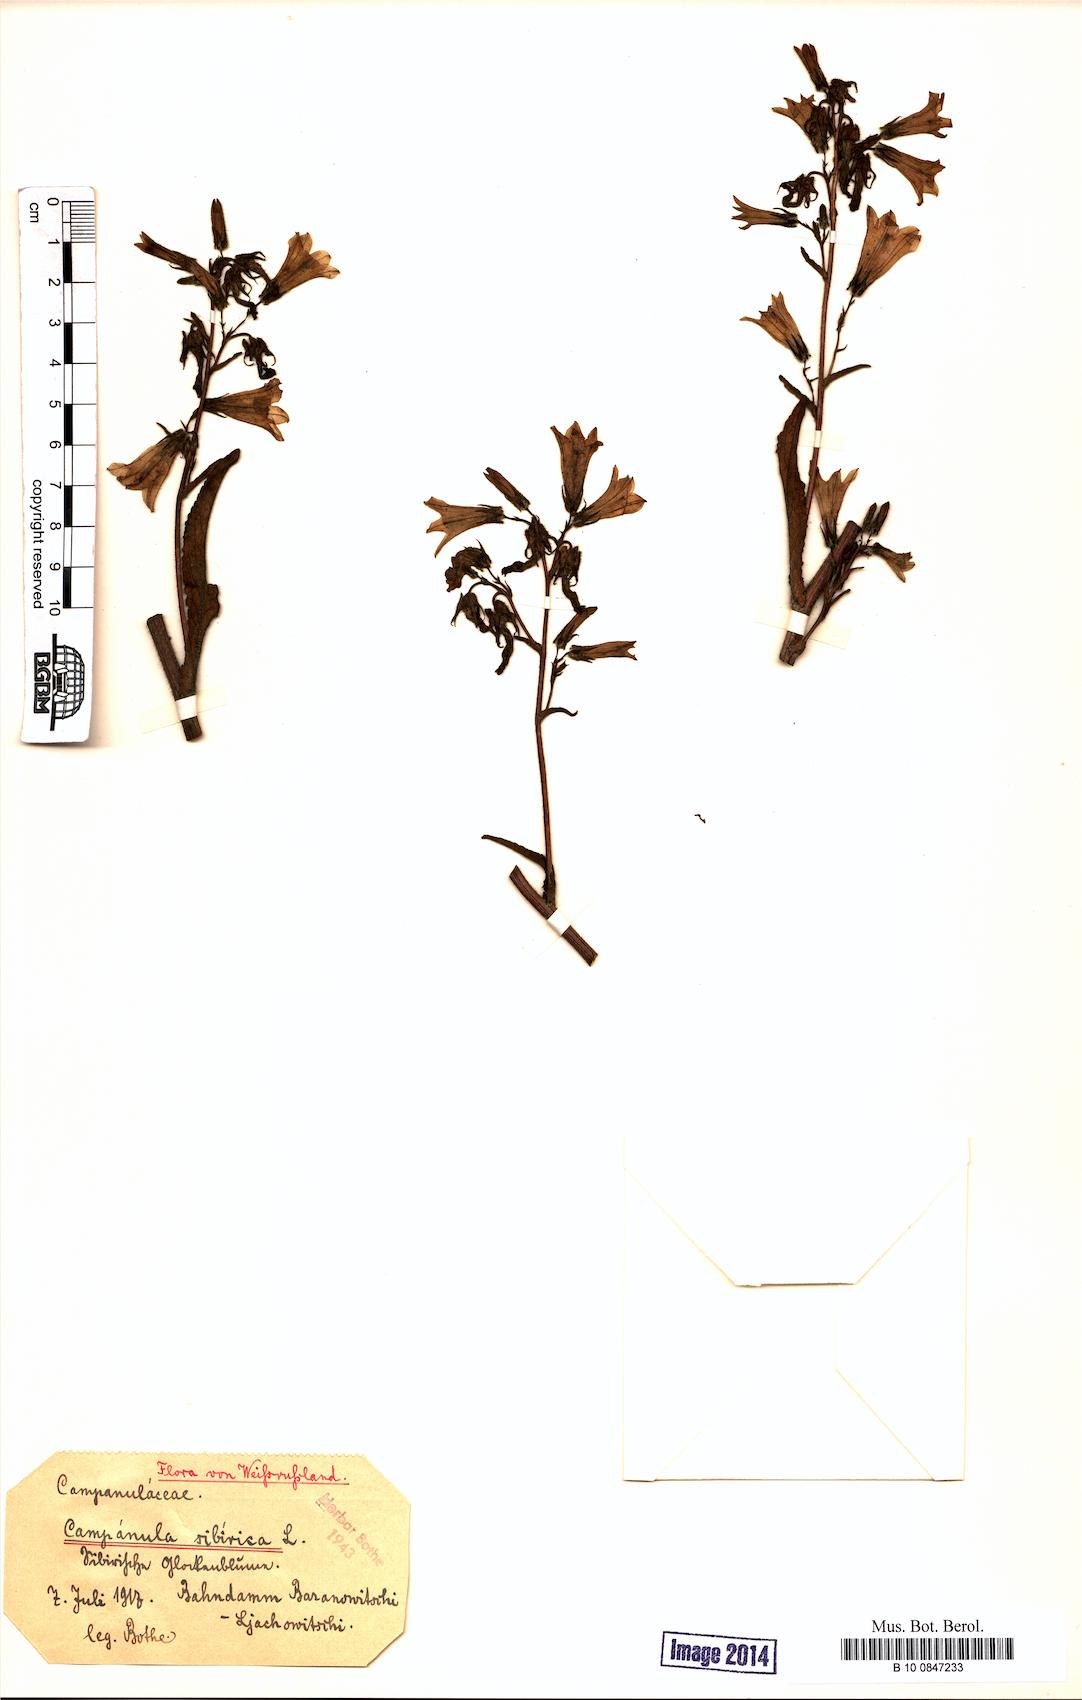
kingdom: Plantae
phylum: Tracheophyta
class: Magnoliopsida
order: Asterales
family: Campanulaceae
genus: Campanula
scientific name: Campanula sibirica
